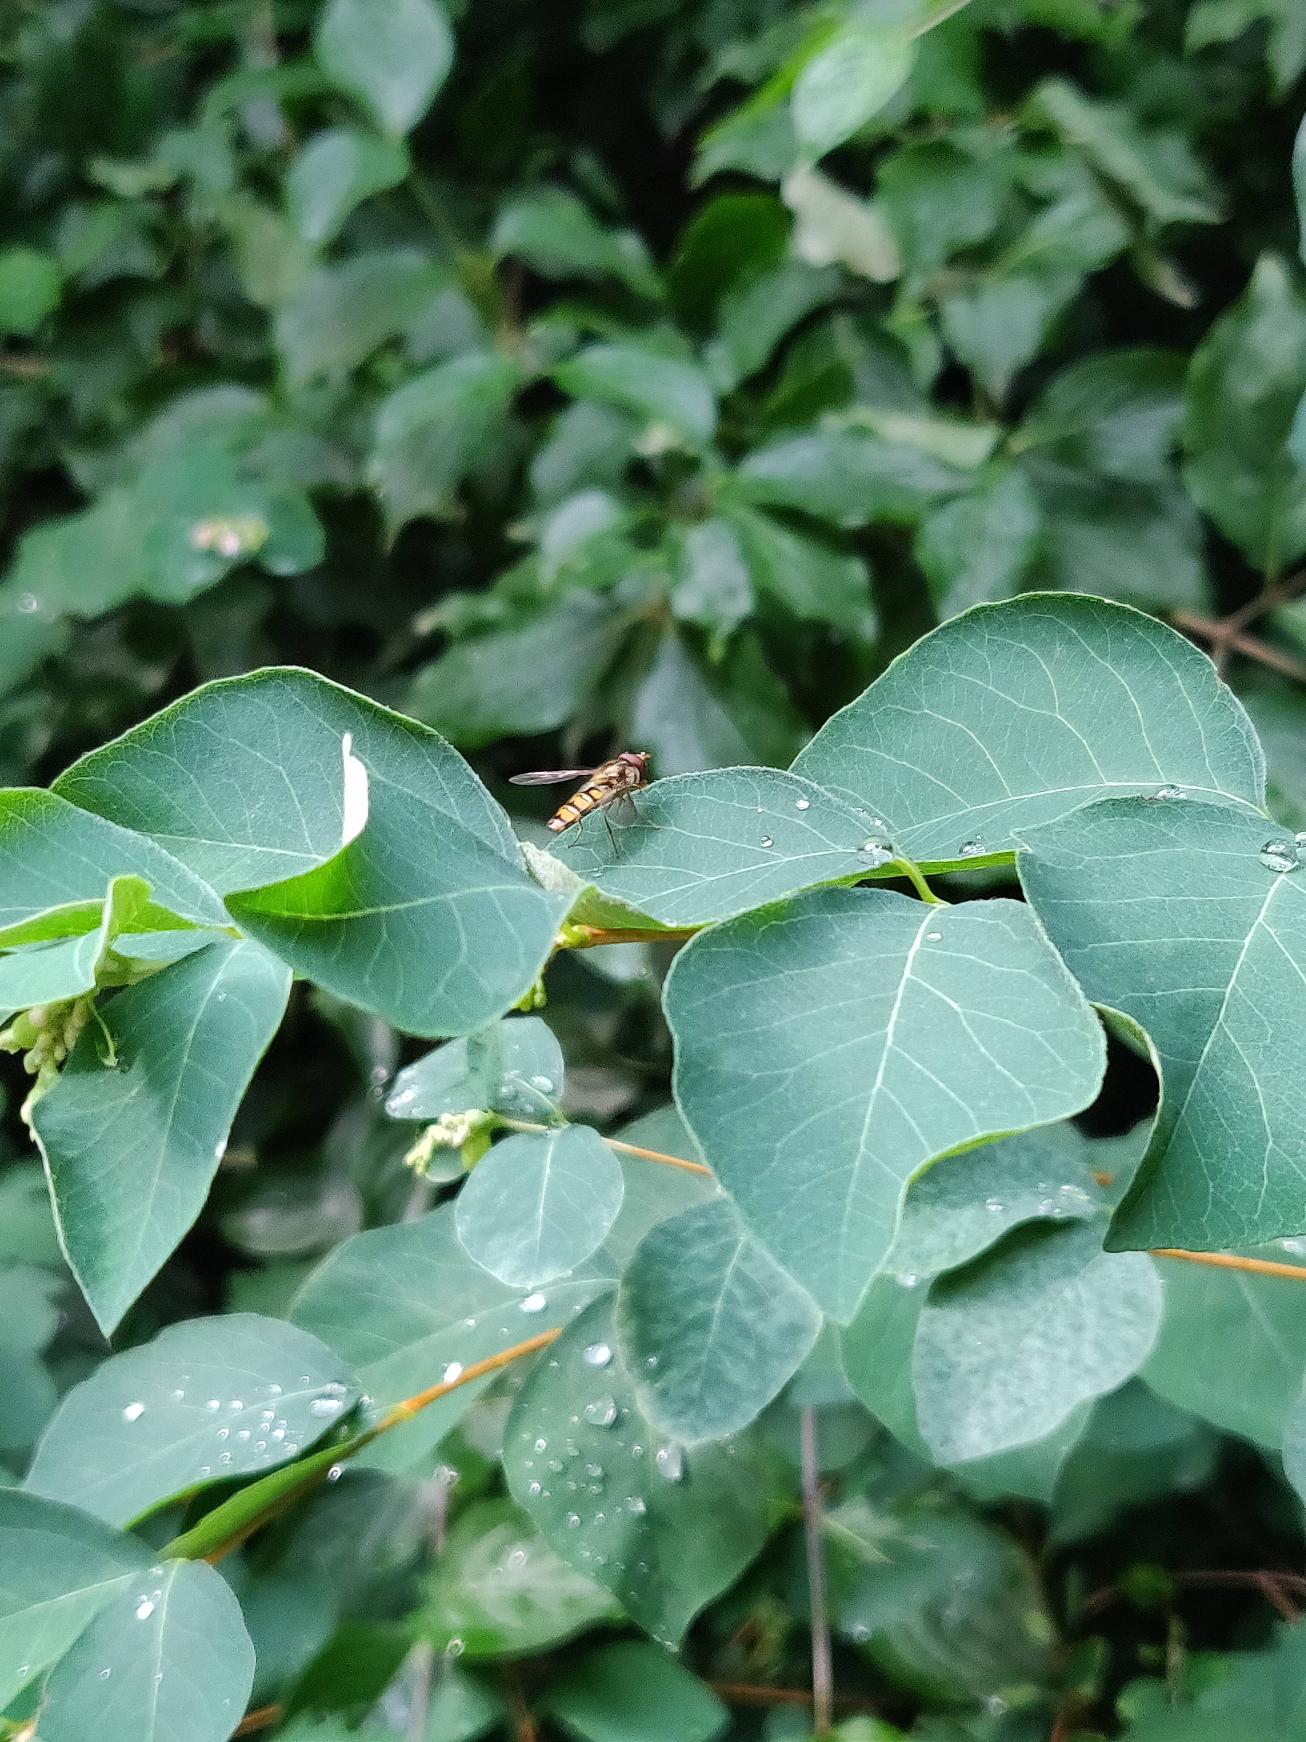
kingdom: Animalia
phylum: Arthropoda
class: Insecta
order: Diptera
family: Syrphidae
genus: Episyrphus
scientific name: Episyrphus balteatus
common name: Dobbeltbåndet svirreflue
